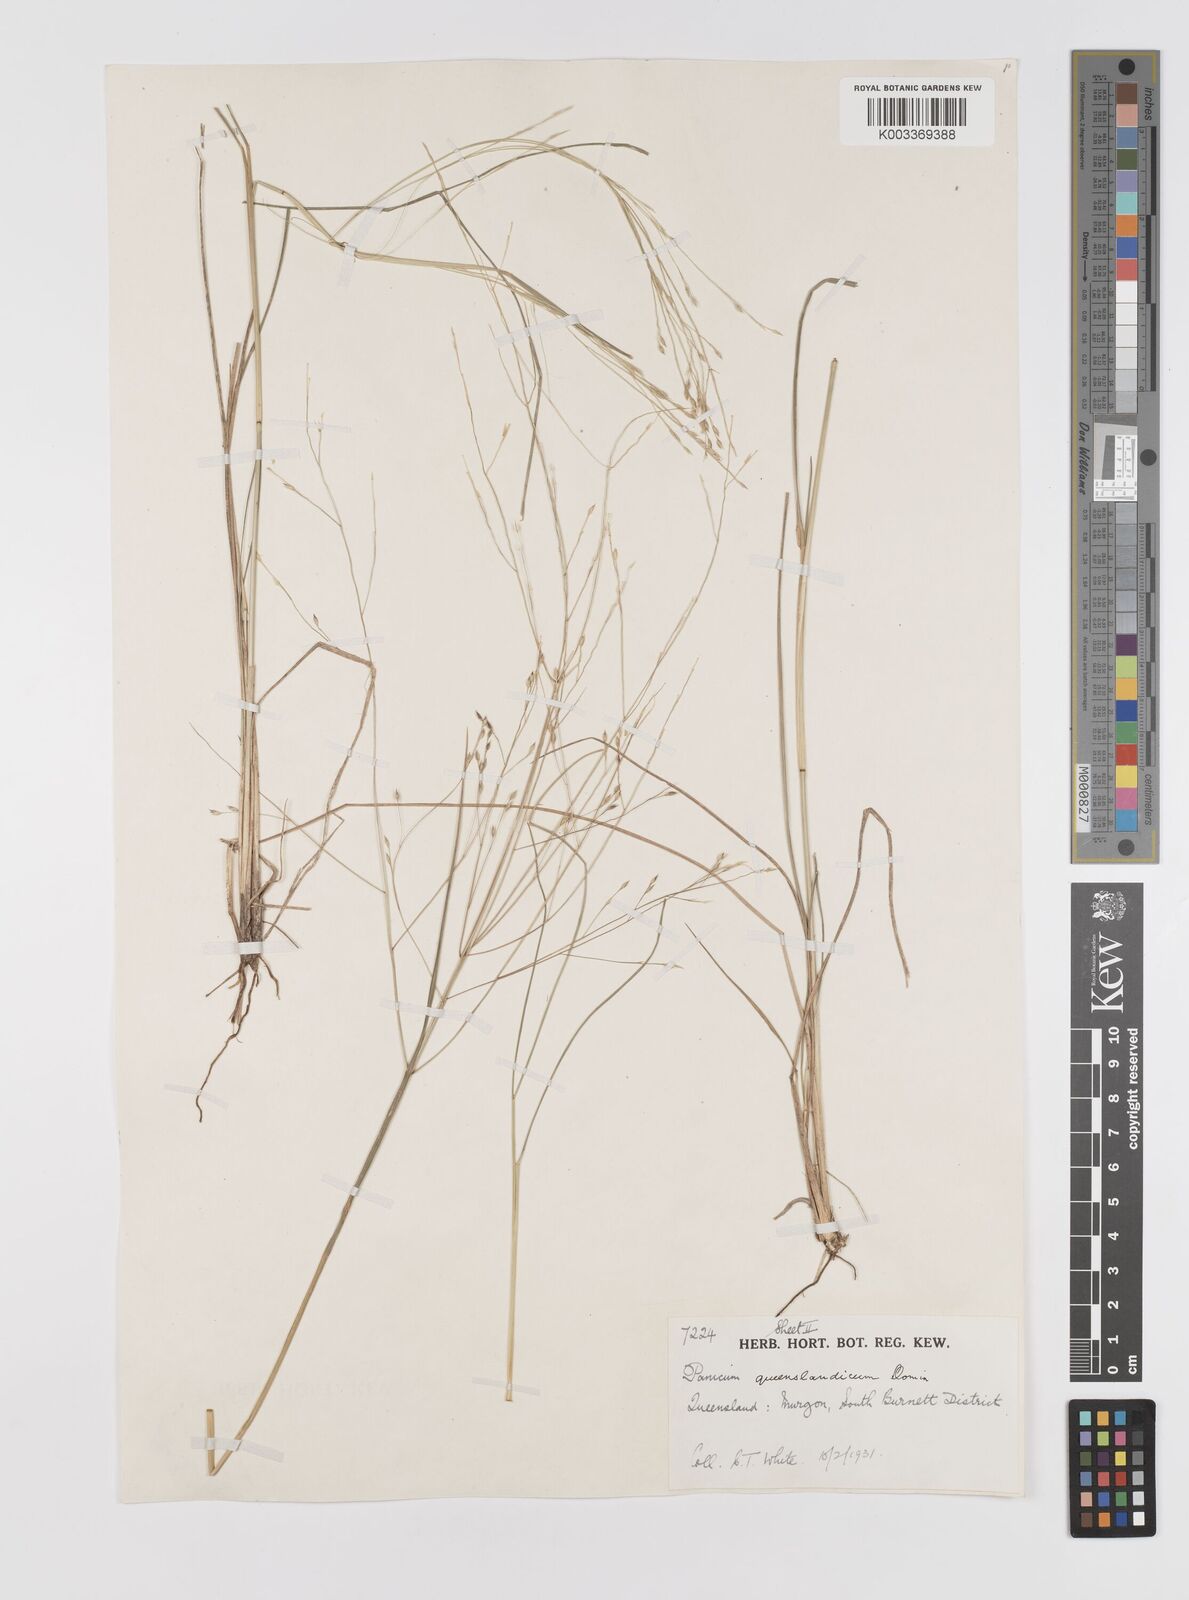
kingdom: Plantae
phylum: Tracheophyta
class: Liliopsida
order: Poales
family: Poaceae
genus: Panicum
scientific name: Panicum queenslandicum
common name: Yabila grass
